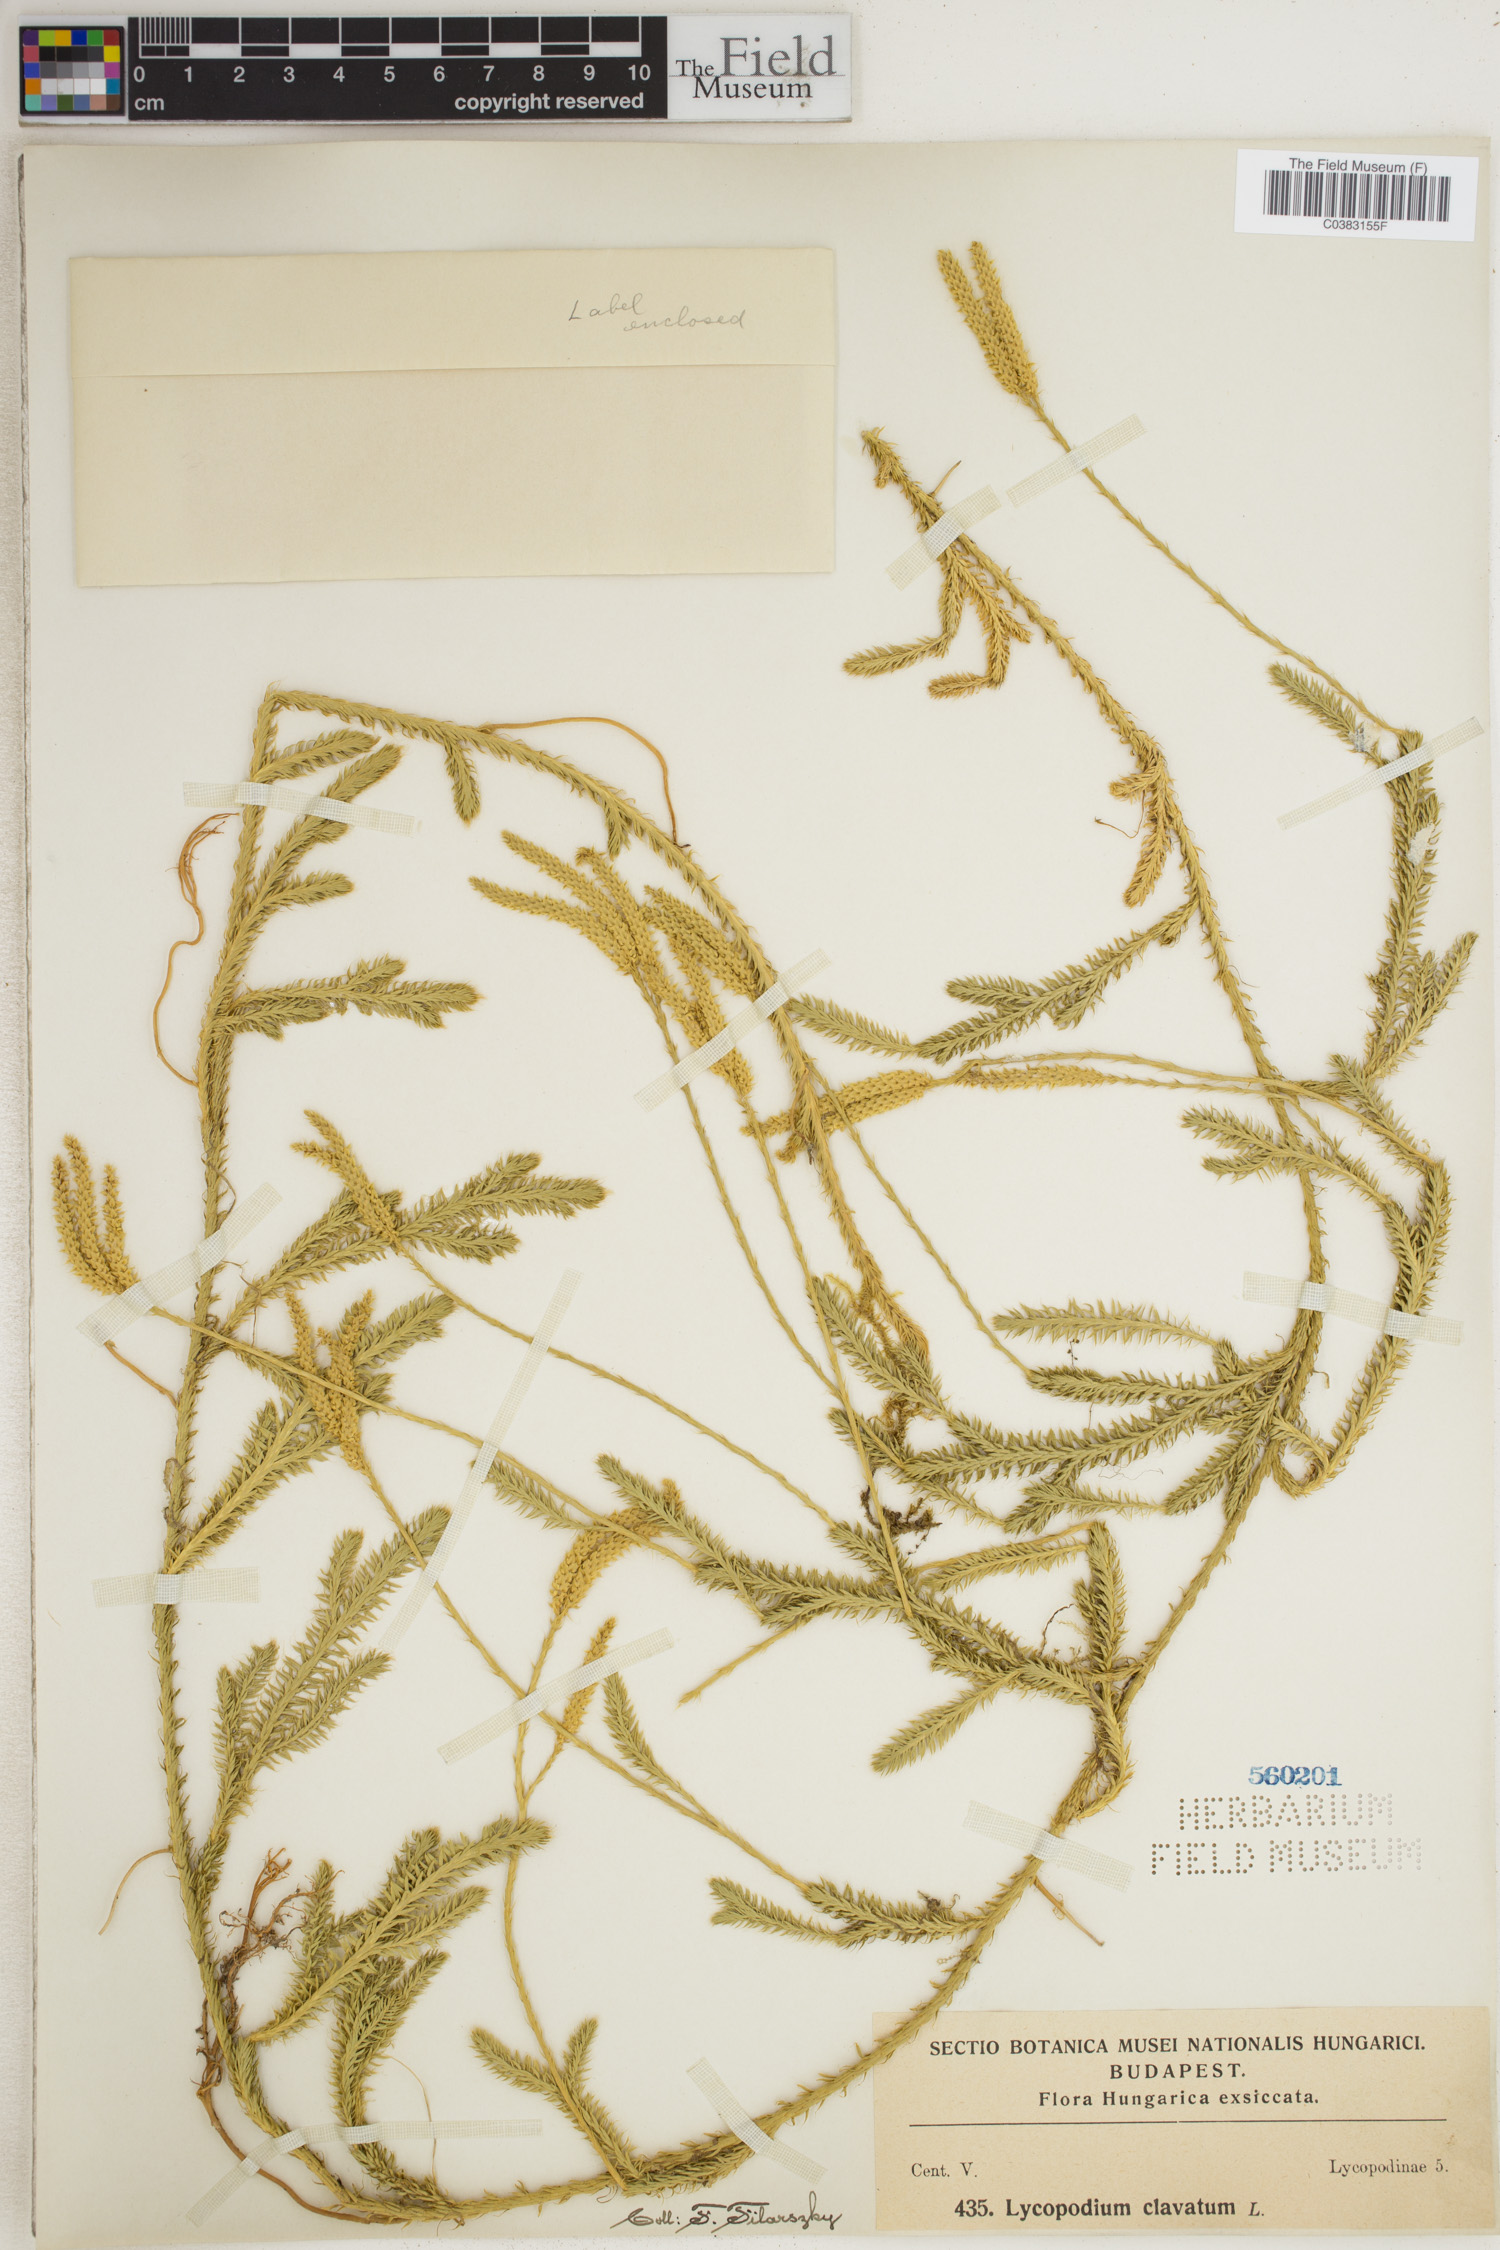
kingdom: Plantae
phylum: Tracheophyta
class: Lycopodiopsida
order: Lycopodiales
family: Lycopodiaceae
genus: Lycopodium
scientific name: Lycopodium clavatum
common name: Stag's-horn clubmoss
